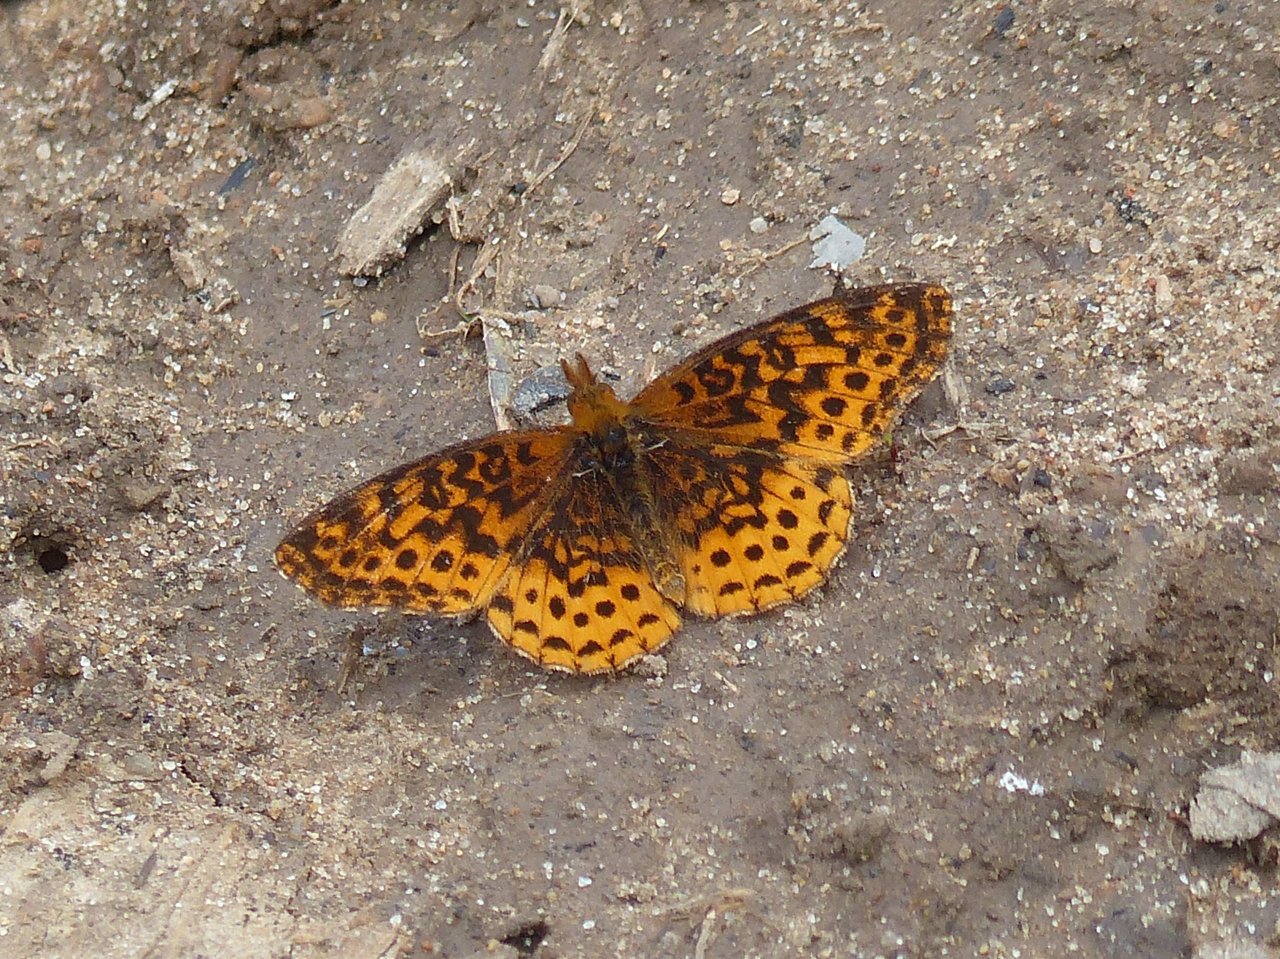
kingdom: Animalia
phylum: Arthropoda
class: Insecta
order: Lepidoptera
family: Nymphalidae
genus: Clossiana
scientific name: Clossiana toddi
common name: Meadow Fritillary
